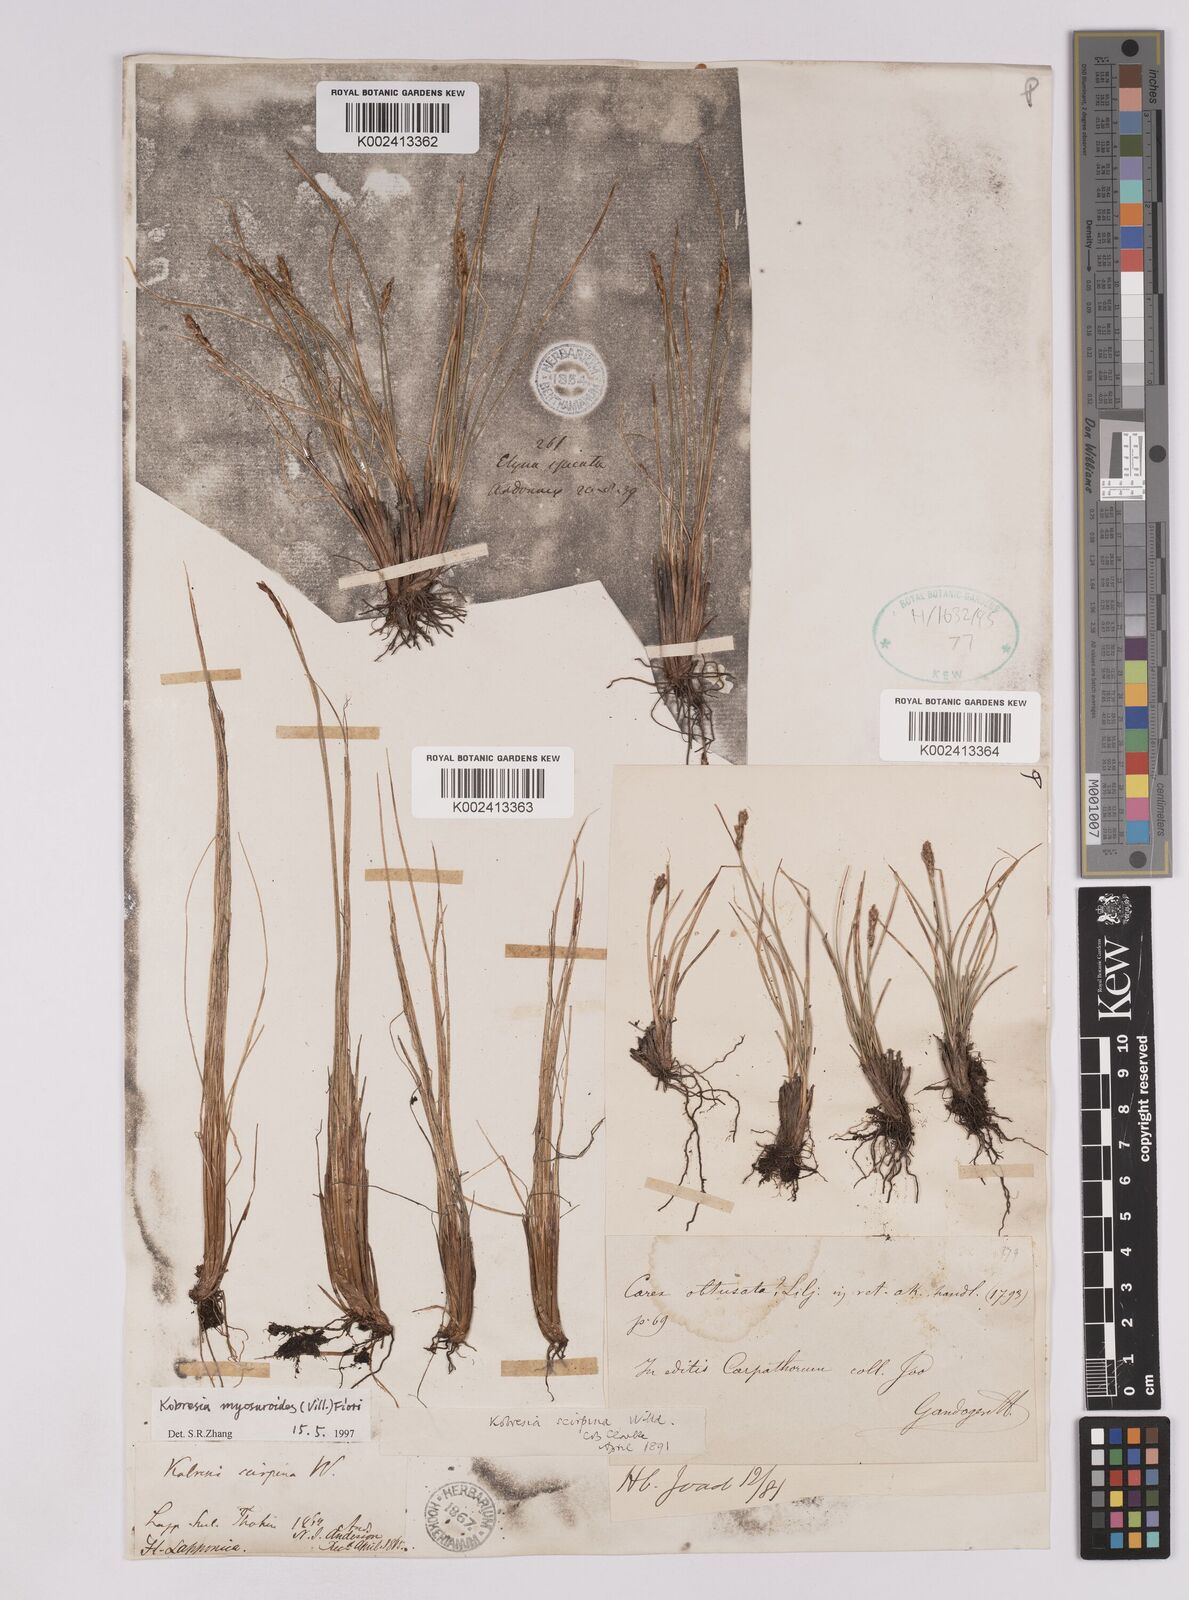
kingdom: Plantae
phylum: Tracheophyta
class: Liliopsida
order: Poales
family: Cyperaceae
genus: Carex
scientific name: Carex myosuroides
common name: Bellard's bog sedge
